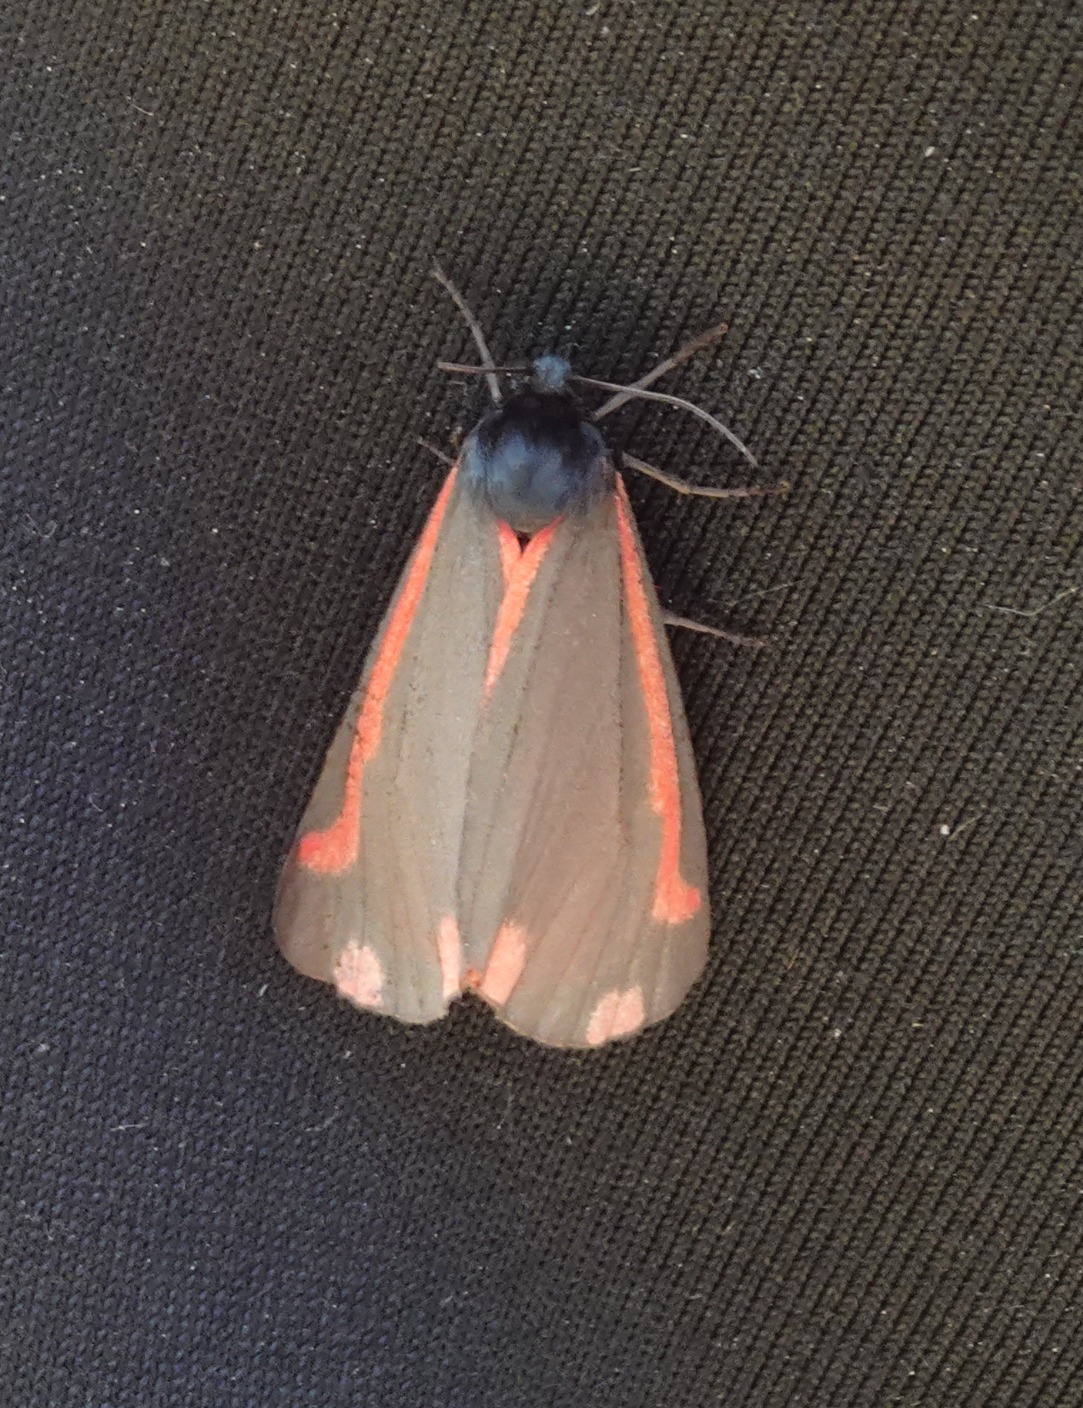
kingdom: Animalia
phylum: Arthropoda
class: Insecta
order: Lepidoptera
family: Erebidae
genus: Tyria
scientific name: Tyria jacobaeae
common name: Blodplet
